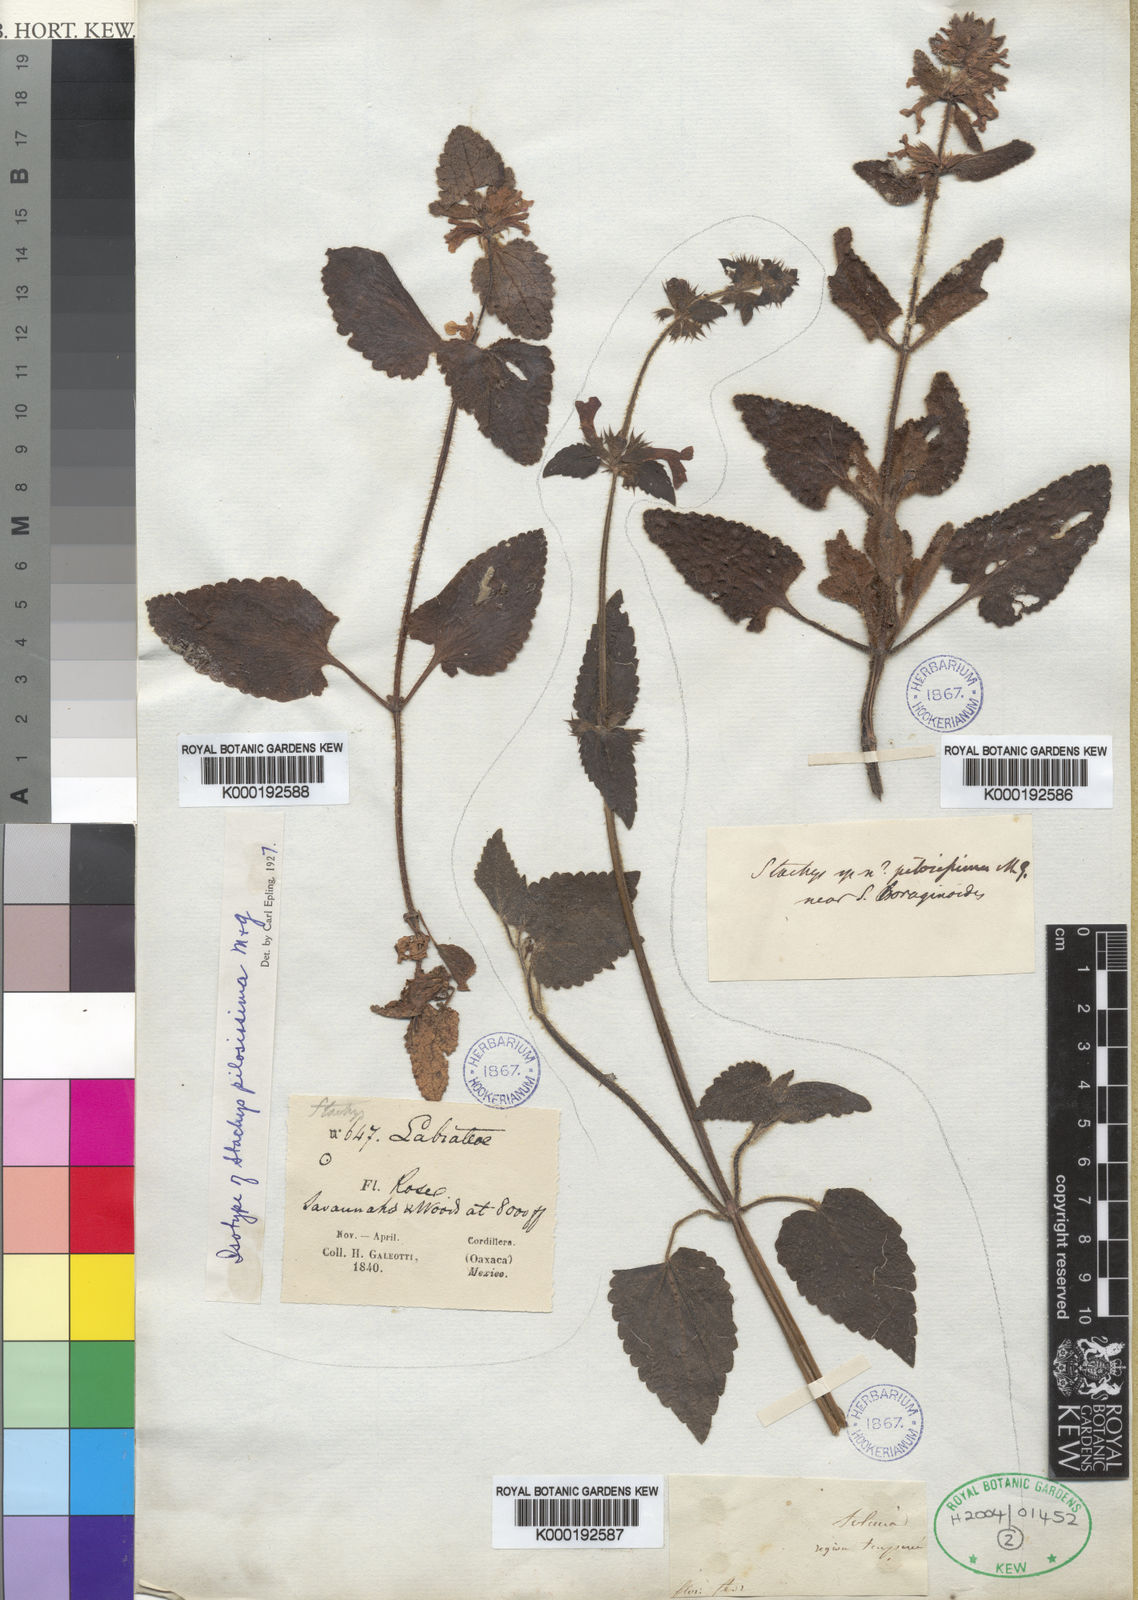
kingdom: Plantae
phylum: Tracheophyta
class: Magnoliopsida
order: Lamiales
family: Lamiaceae
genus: Stachys
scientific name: Stachys pilosissima
